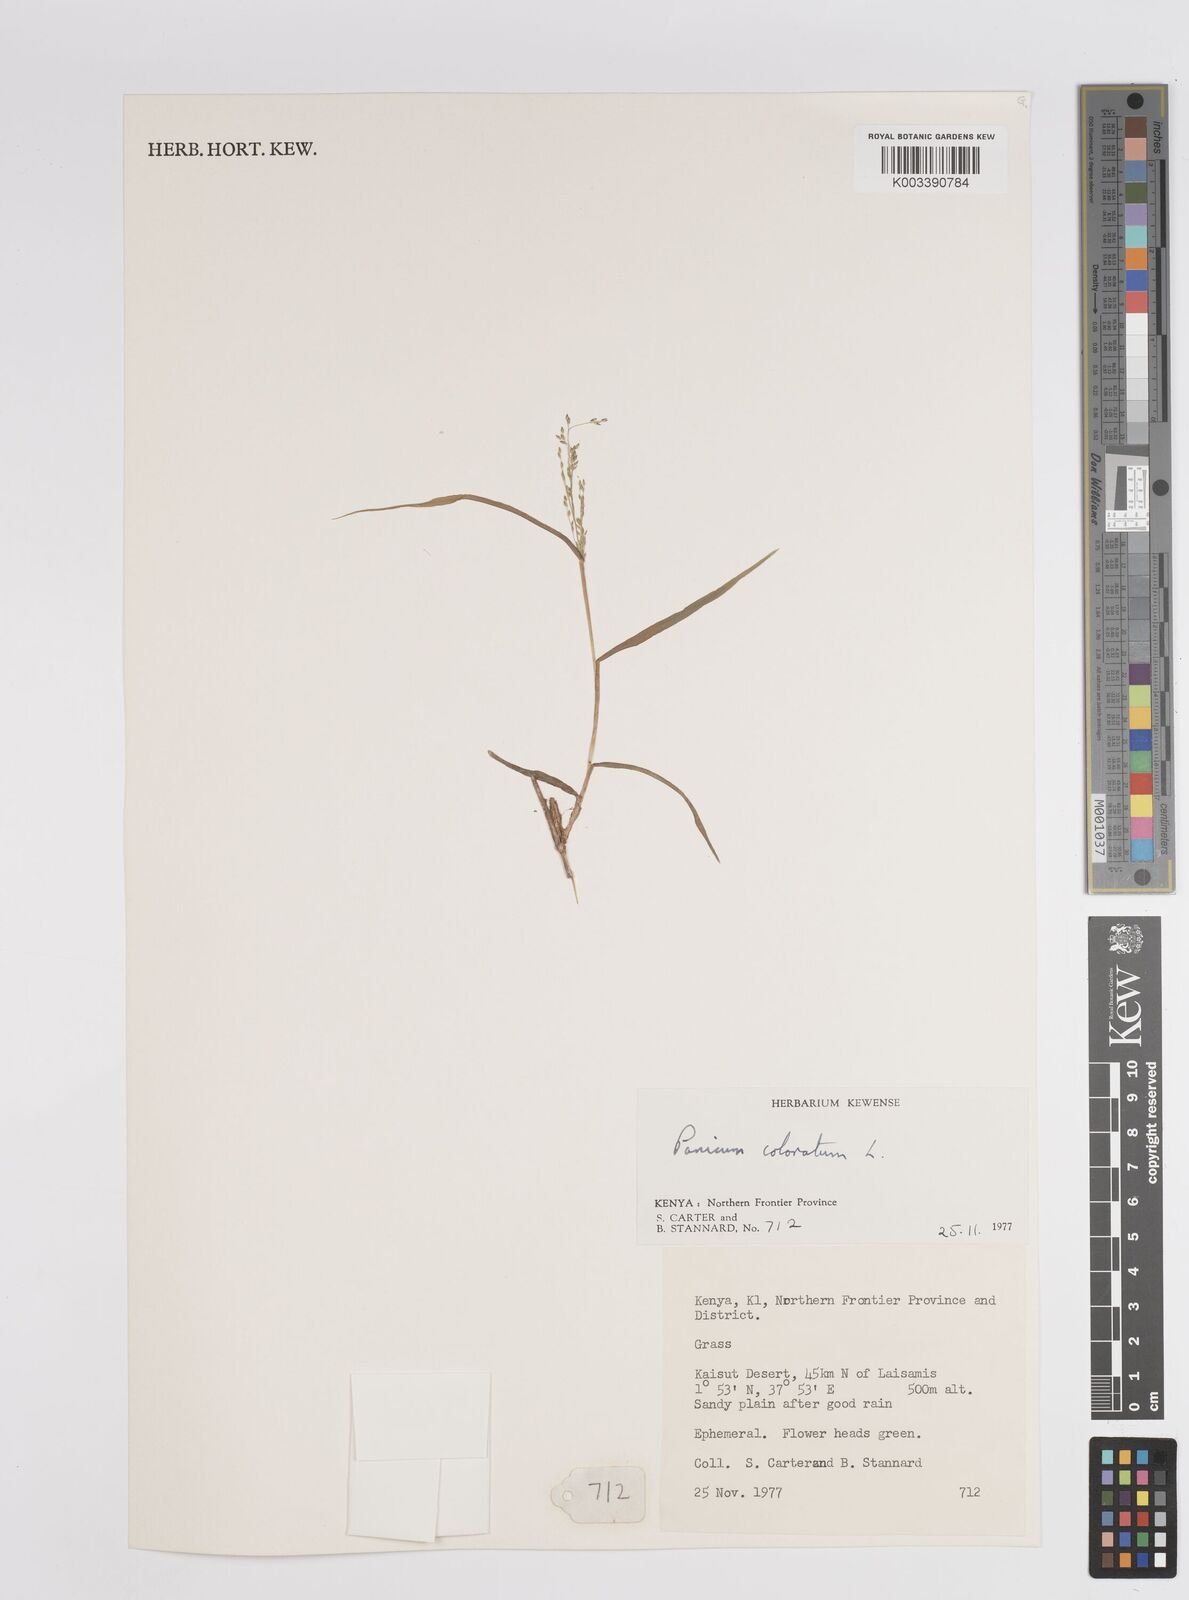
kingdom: Plantae
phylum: Tracheophyta
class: Liliopsida
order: Poales
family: Poaceae
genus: Panicum
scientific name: Panicum coloratum
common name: Kleingrass
